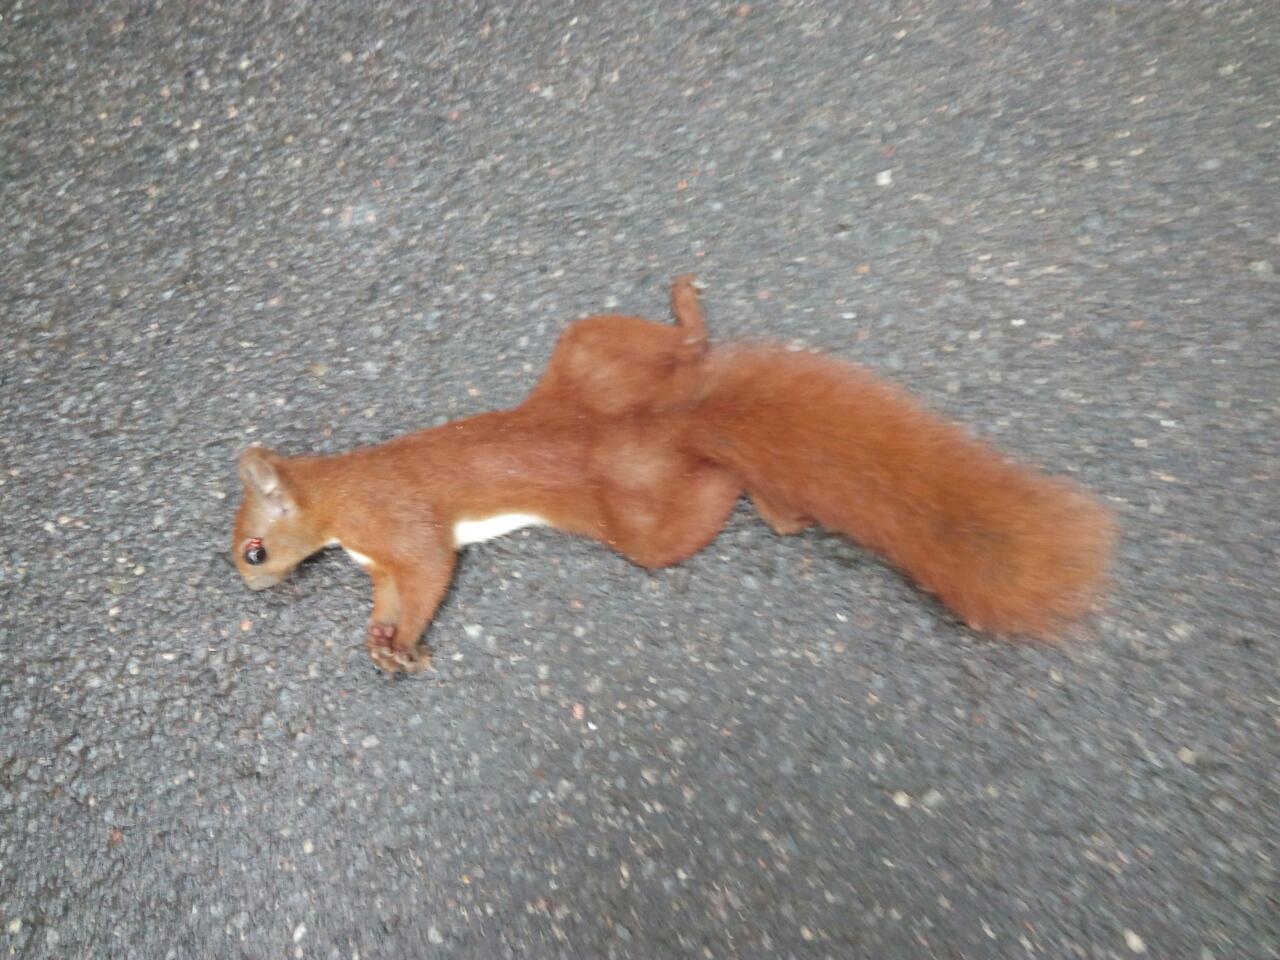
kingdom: Animalia
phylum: Chordata
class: Mammalia
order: Rodentia
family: Sciuridae
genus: Sciurus
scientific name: Sciurus vulgaris
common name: Eurasian red squirrel
